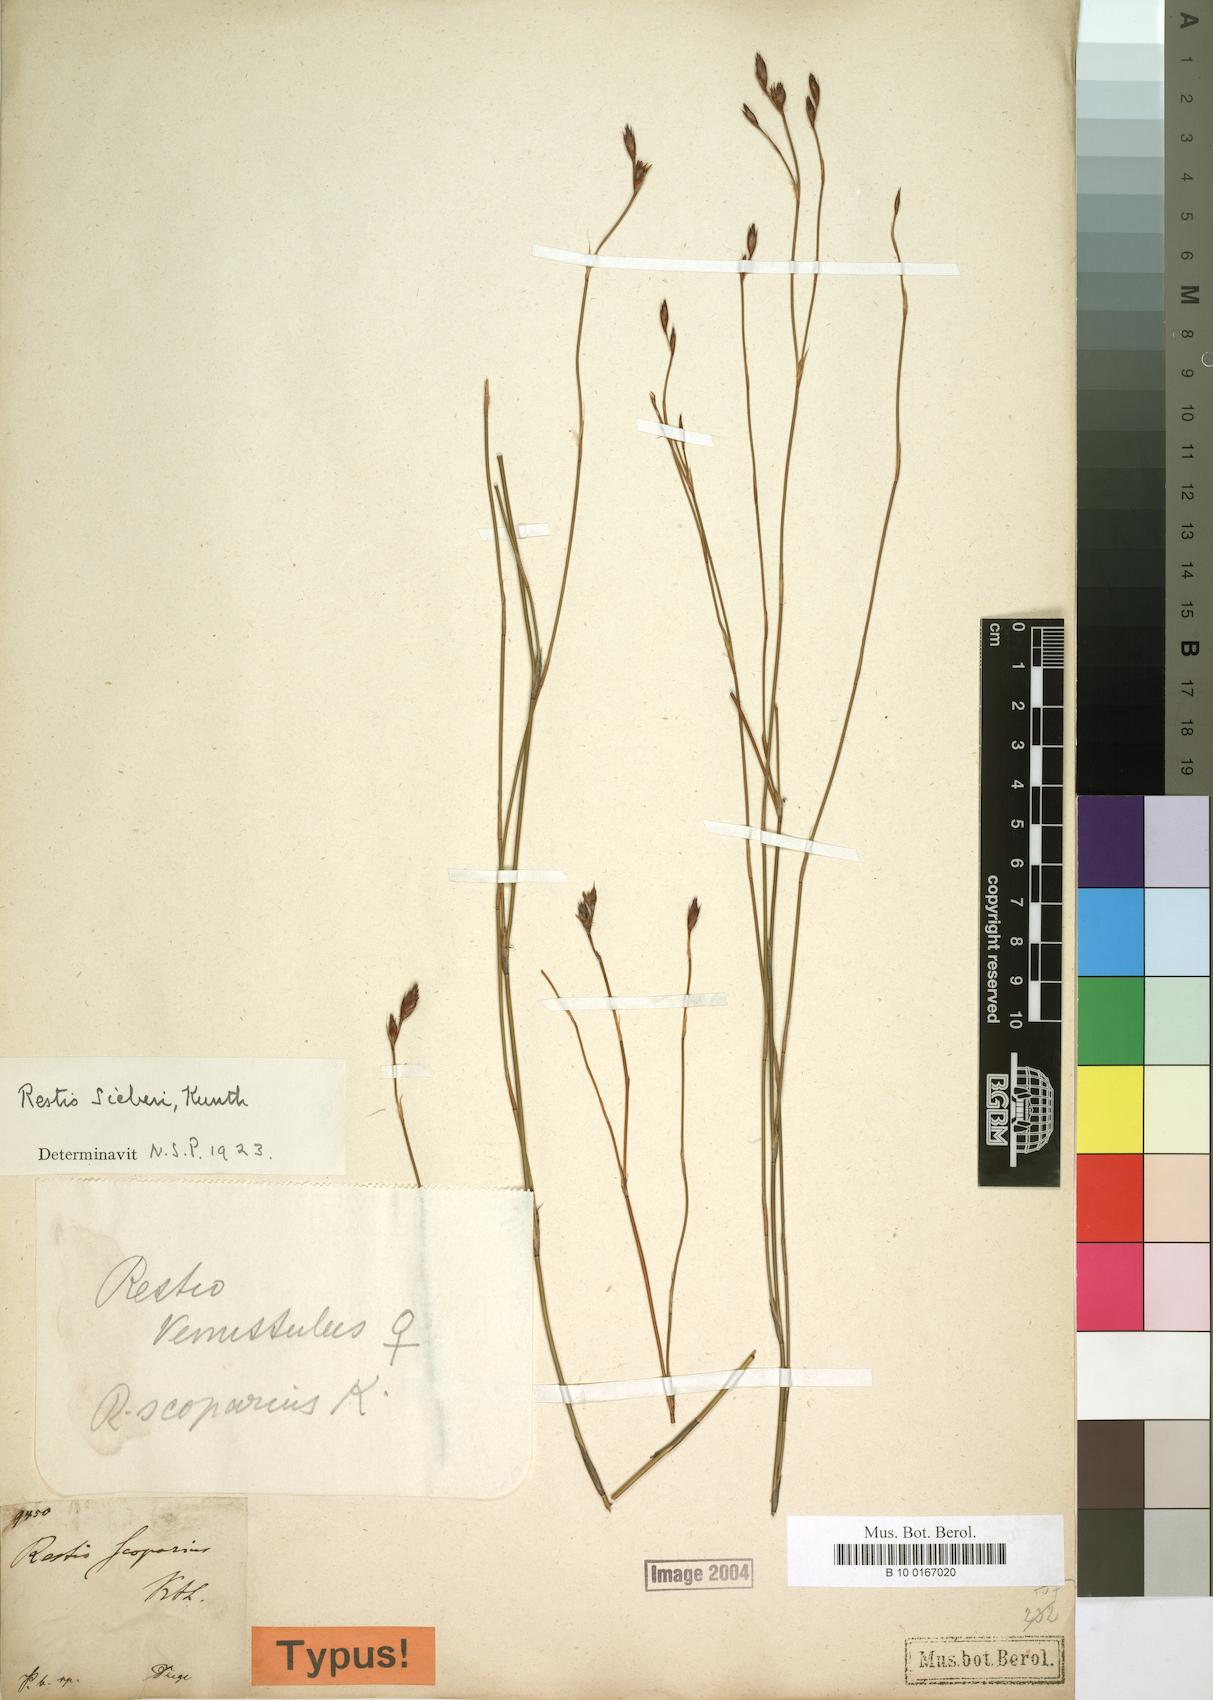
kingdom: Plantae
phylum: Tracheophyta
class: Liliopsida
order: Poales
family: Restionaceae
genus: Restio
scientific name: Restio sieberi
